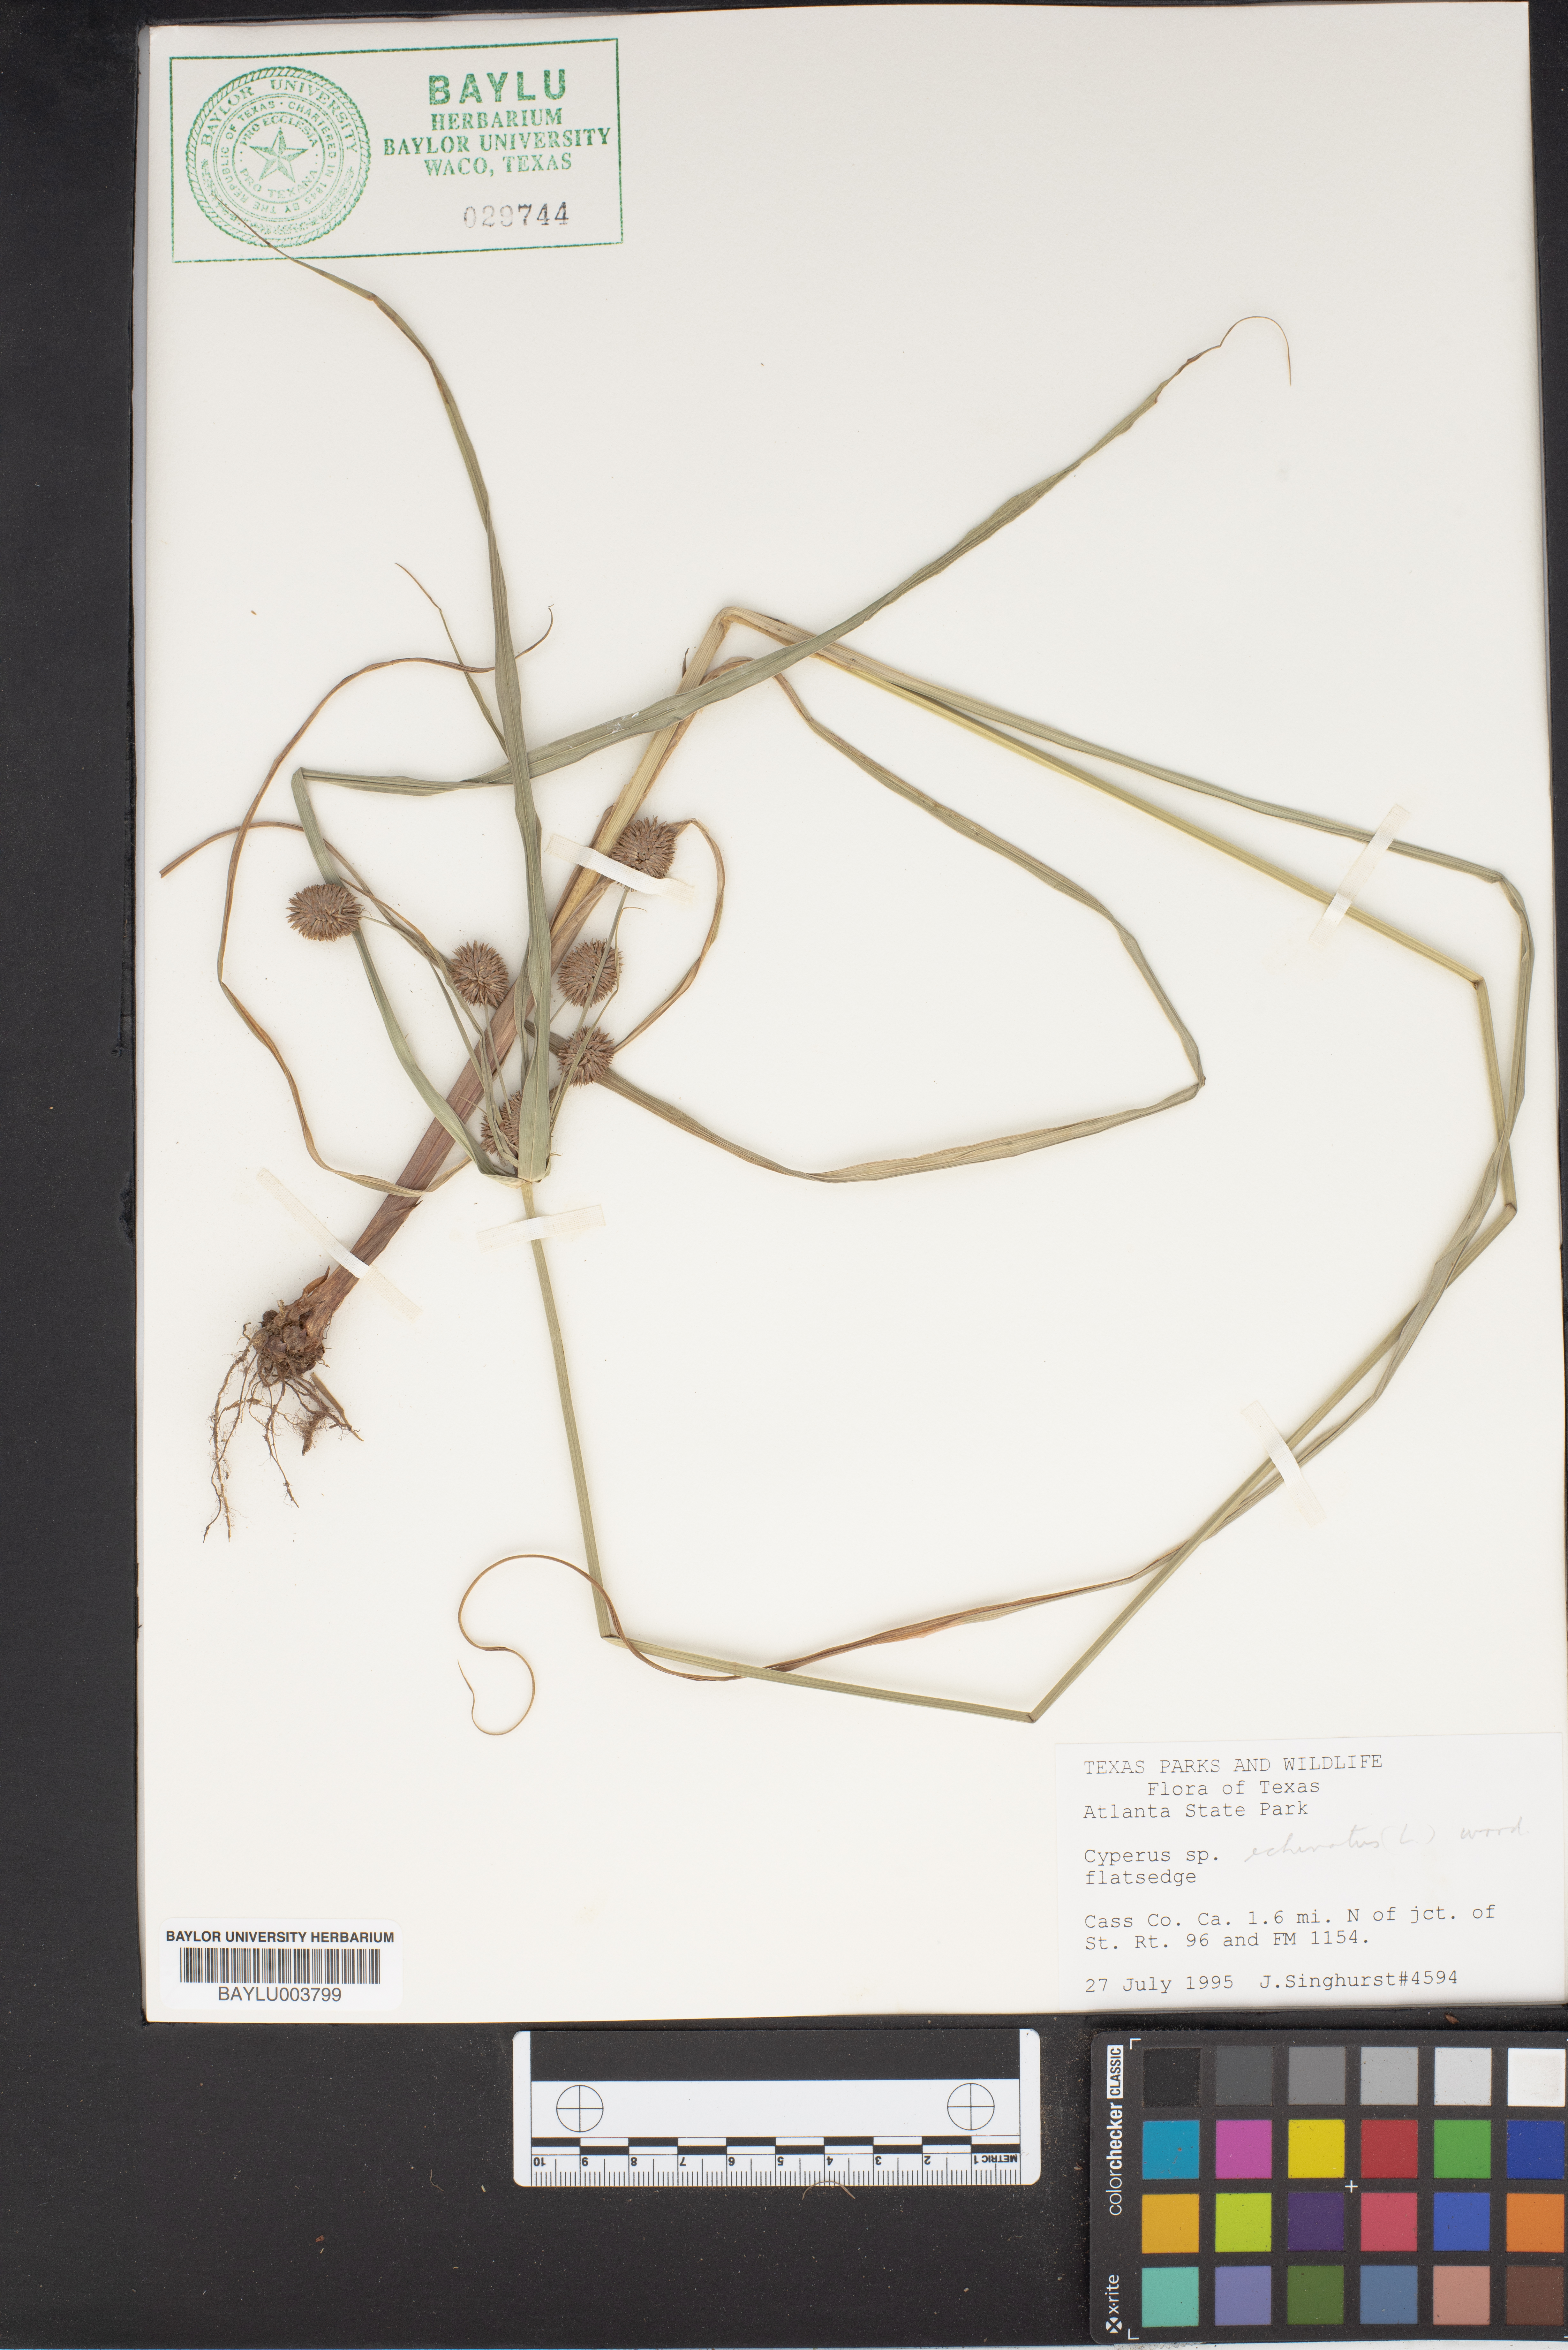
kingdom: Plantae
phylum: Tracheophyta
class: Liliopsida
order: Poales
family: Cyperaceae
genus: Cyperus
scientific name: Cyperus
